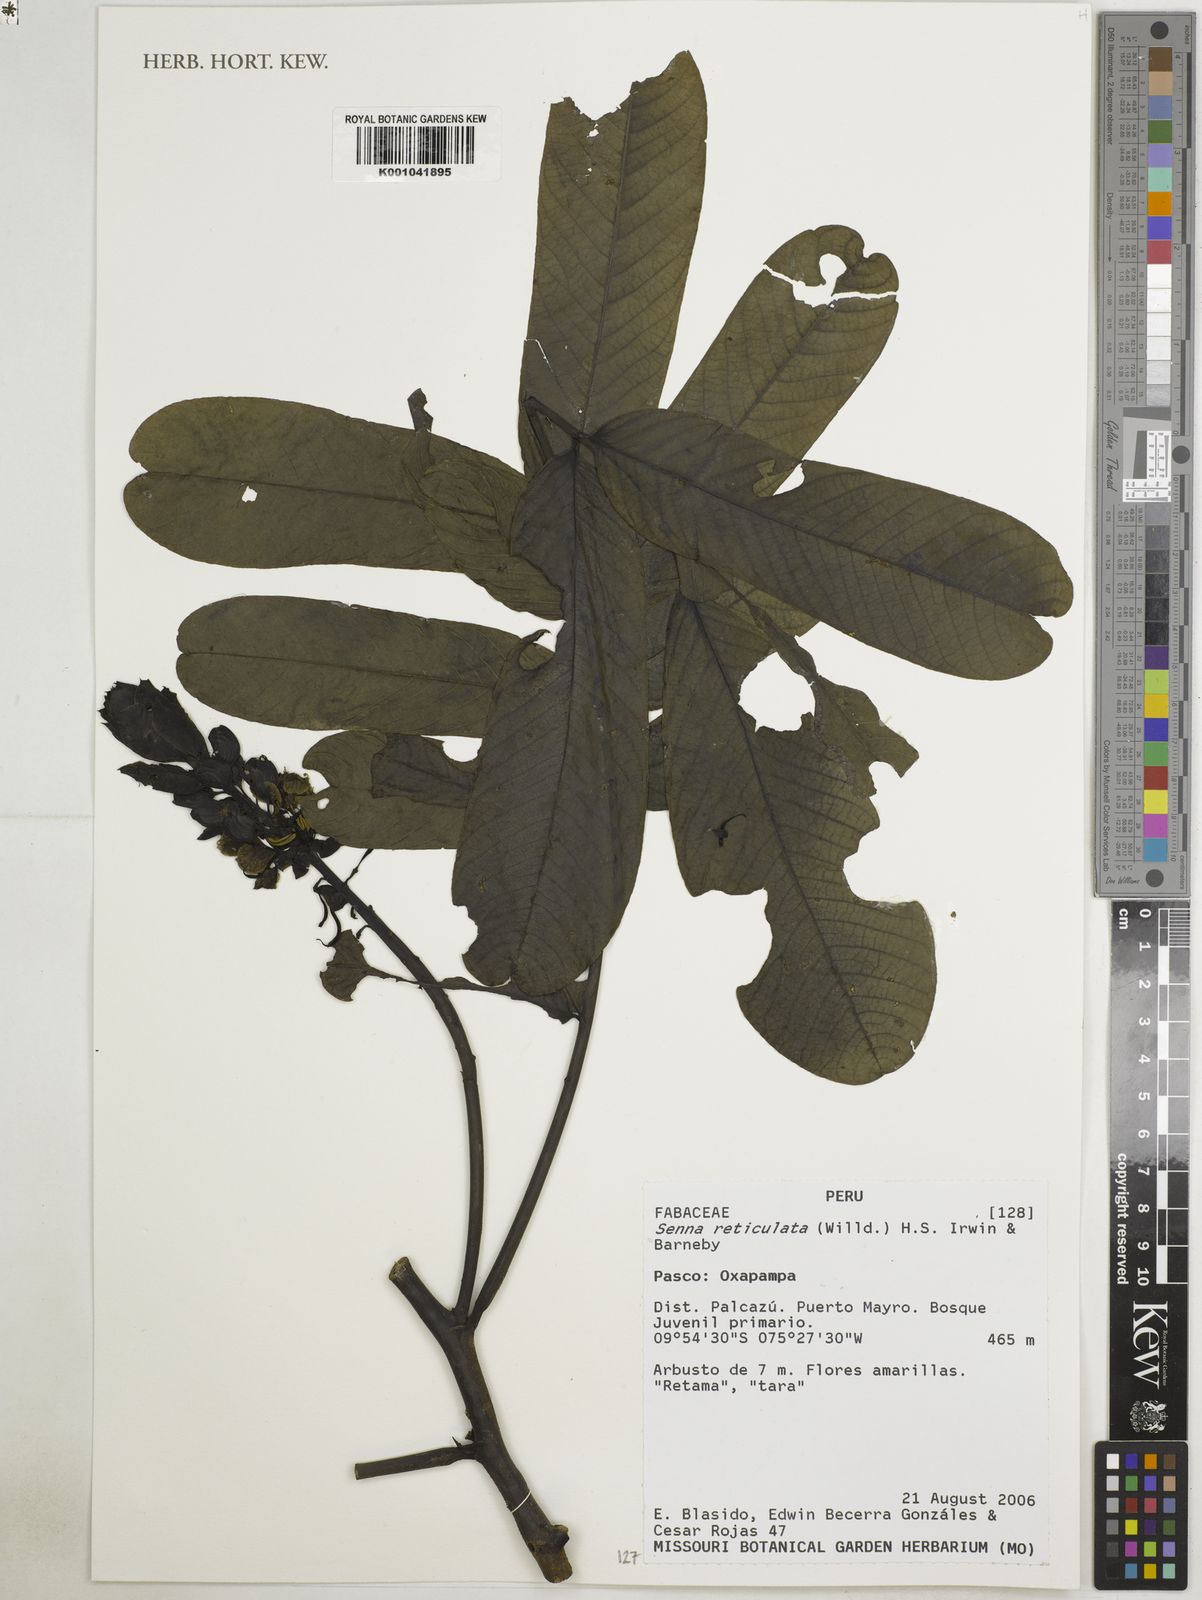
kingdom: Plantae
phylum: Tracheophyta
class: Magnoliopsida
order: Fabales
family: Fabaceae
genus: Senna
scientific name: Senna reticulata
